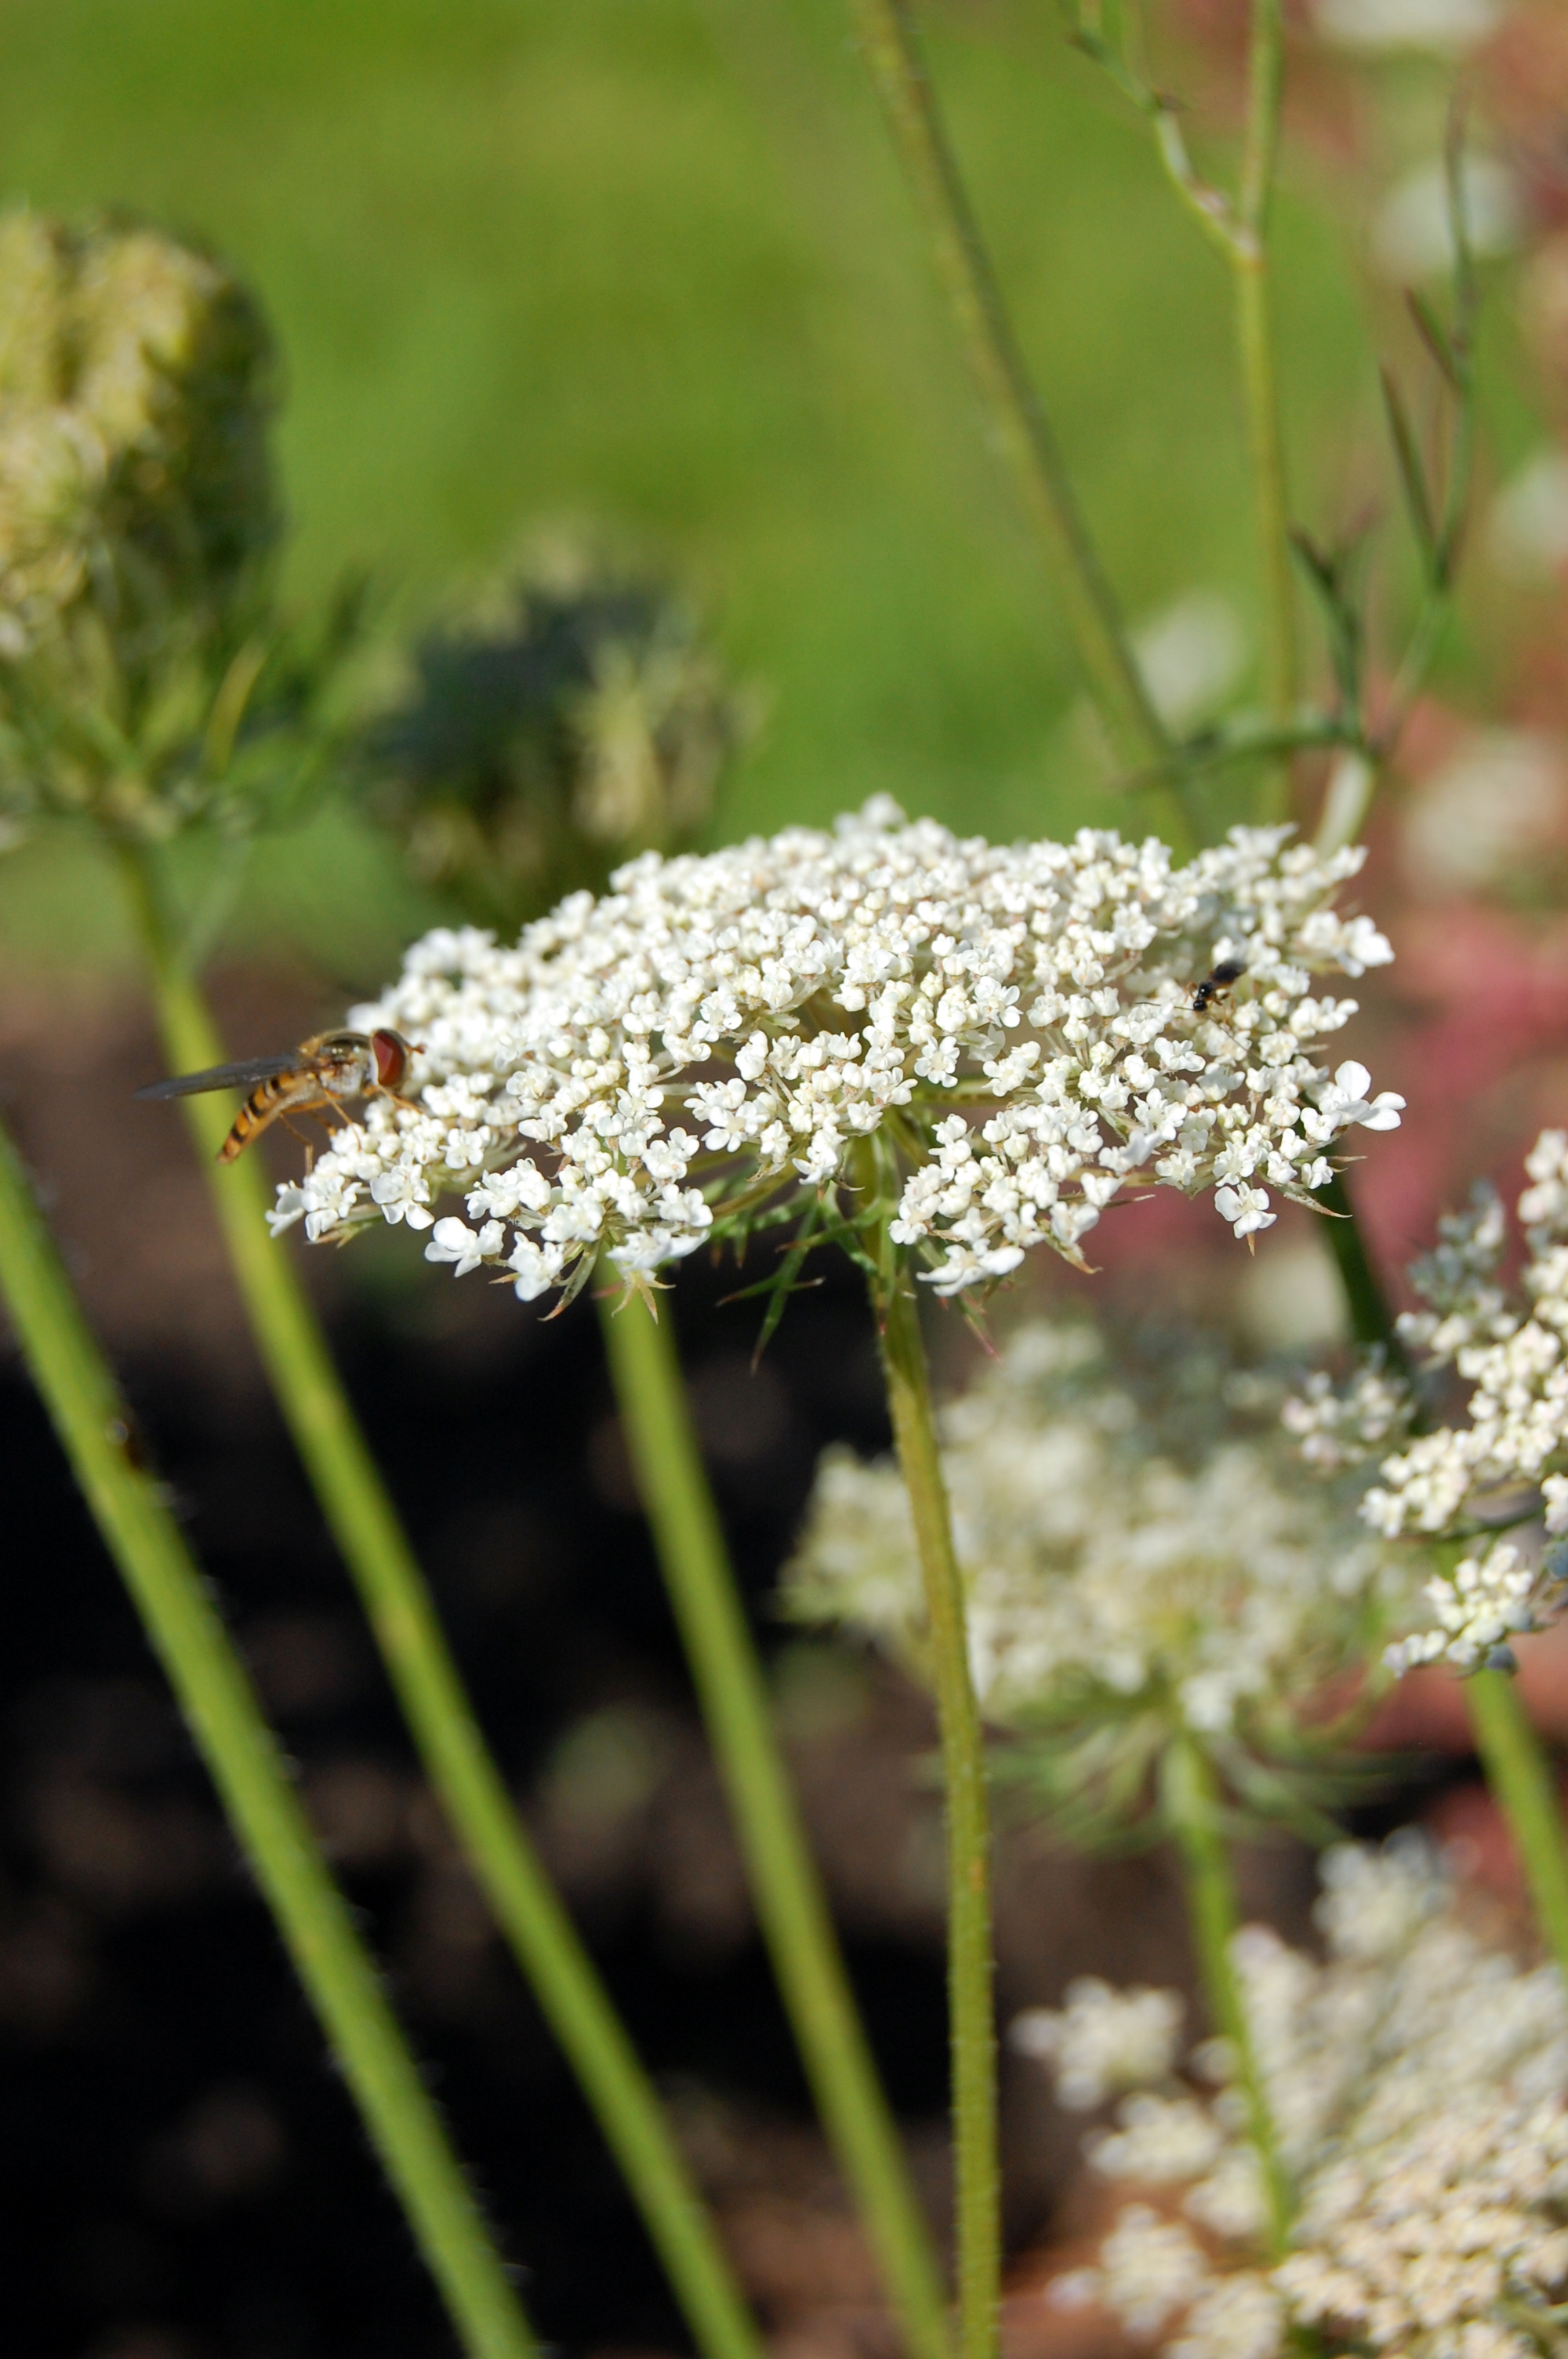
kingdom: Plantae
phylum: Tracheophyta
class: Magnoliopsida
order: Apiales
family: Apiaceae
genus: Daucus
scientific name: Daucus carota
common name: Wild carrot
